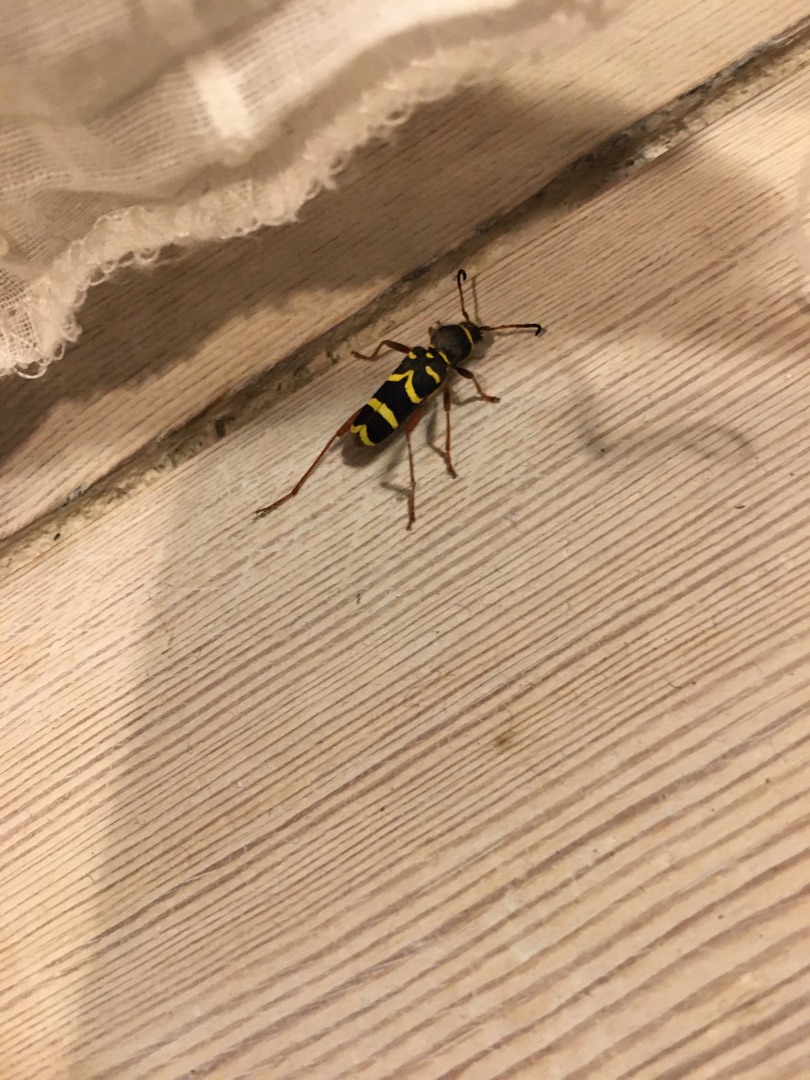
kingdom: Animalia
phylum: Arthropoda
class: Insecta
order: Coleoptera
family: Cerambycidae
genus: Clytus
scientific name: Clytus arietis
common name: Lille hvepsebuk
